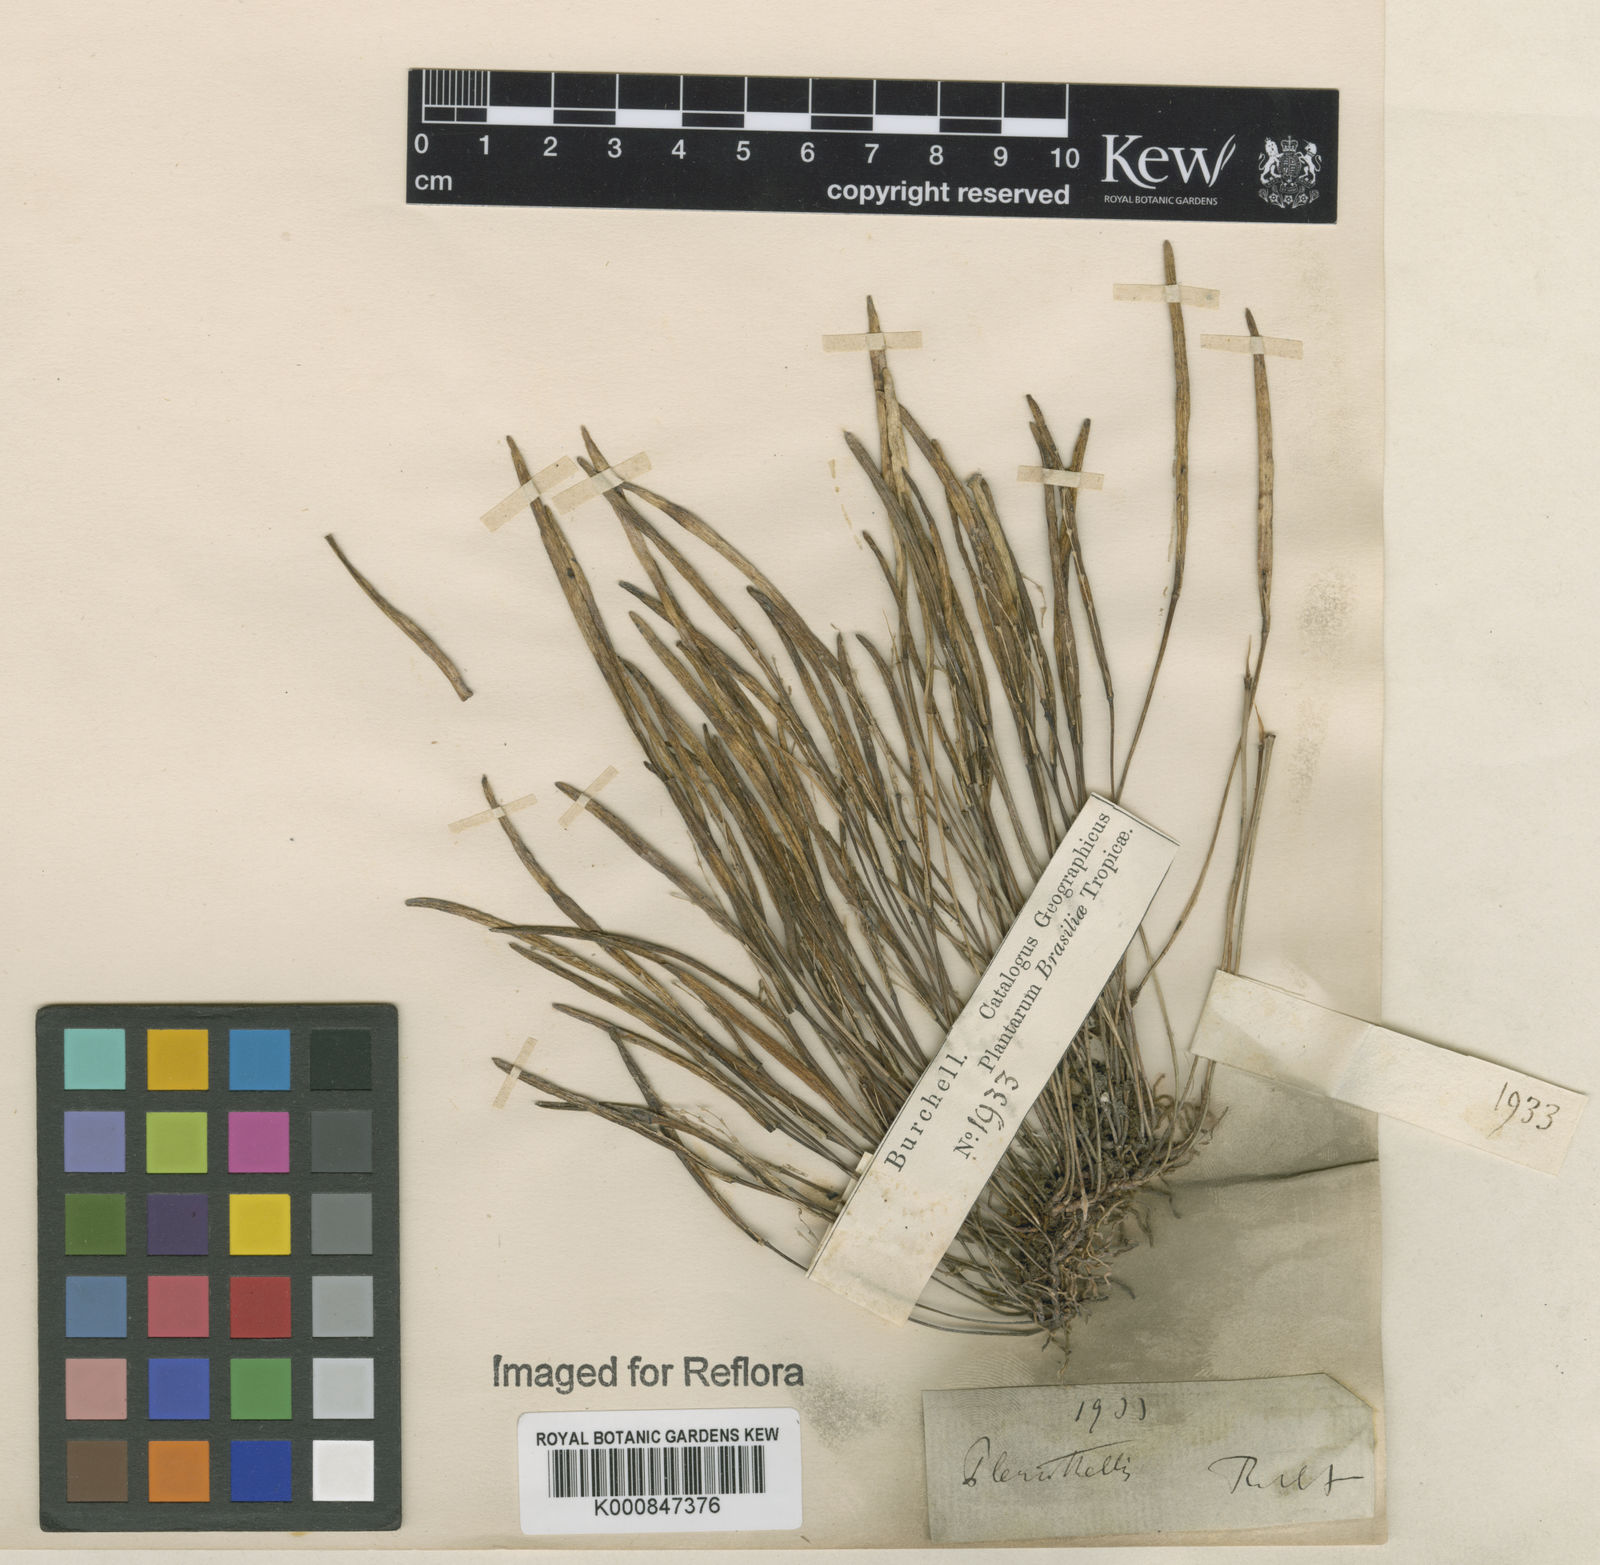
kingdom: Plantae
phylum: Tracheophyta
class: Liliopsida
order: Asparagales
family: Orchidaceae
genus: Pleurothallis
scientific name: Pleurothallis
